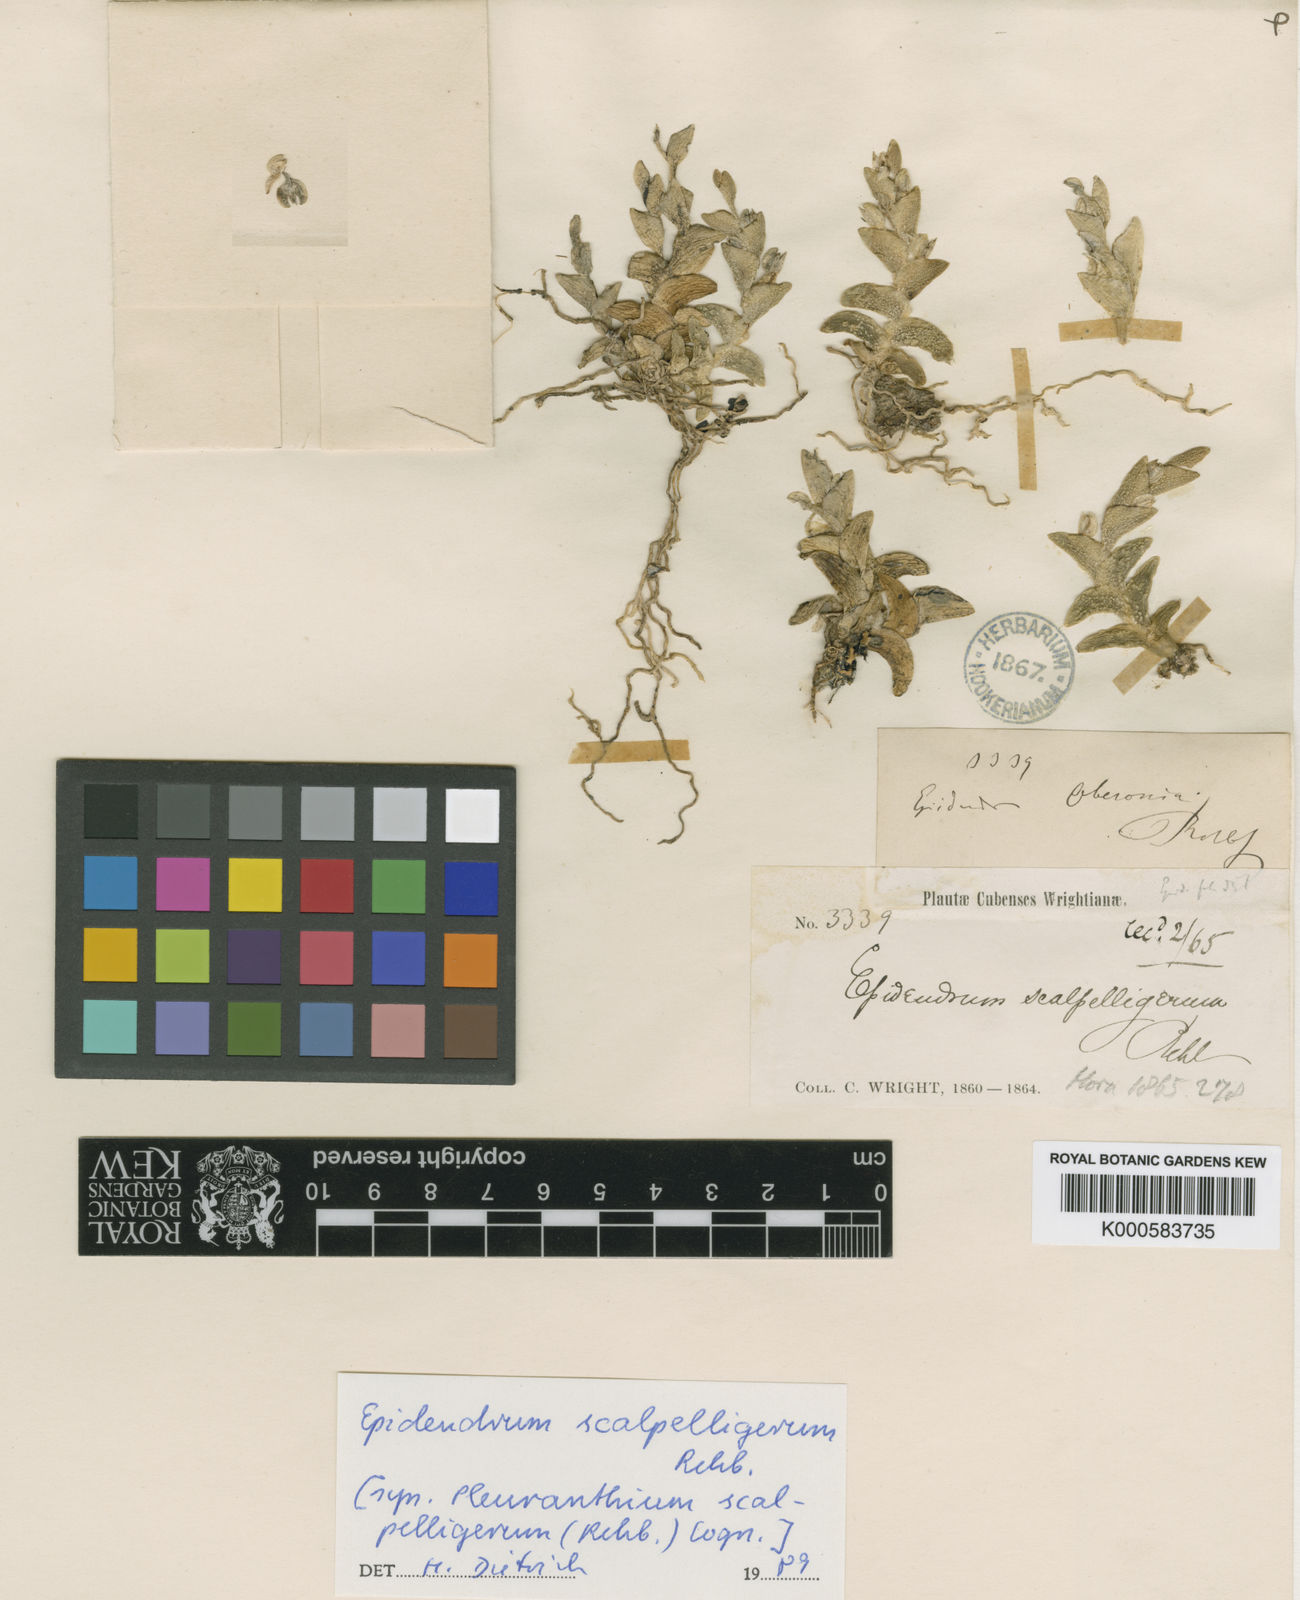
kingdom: Plantae
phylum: Tracheophyta
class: Liliopsida
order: Asparagales
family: Orchidaceae
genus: Epidendrum
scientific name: Epidendrum scalpelligerum
